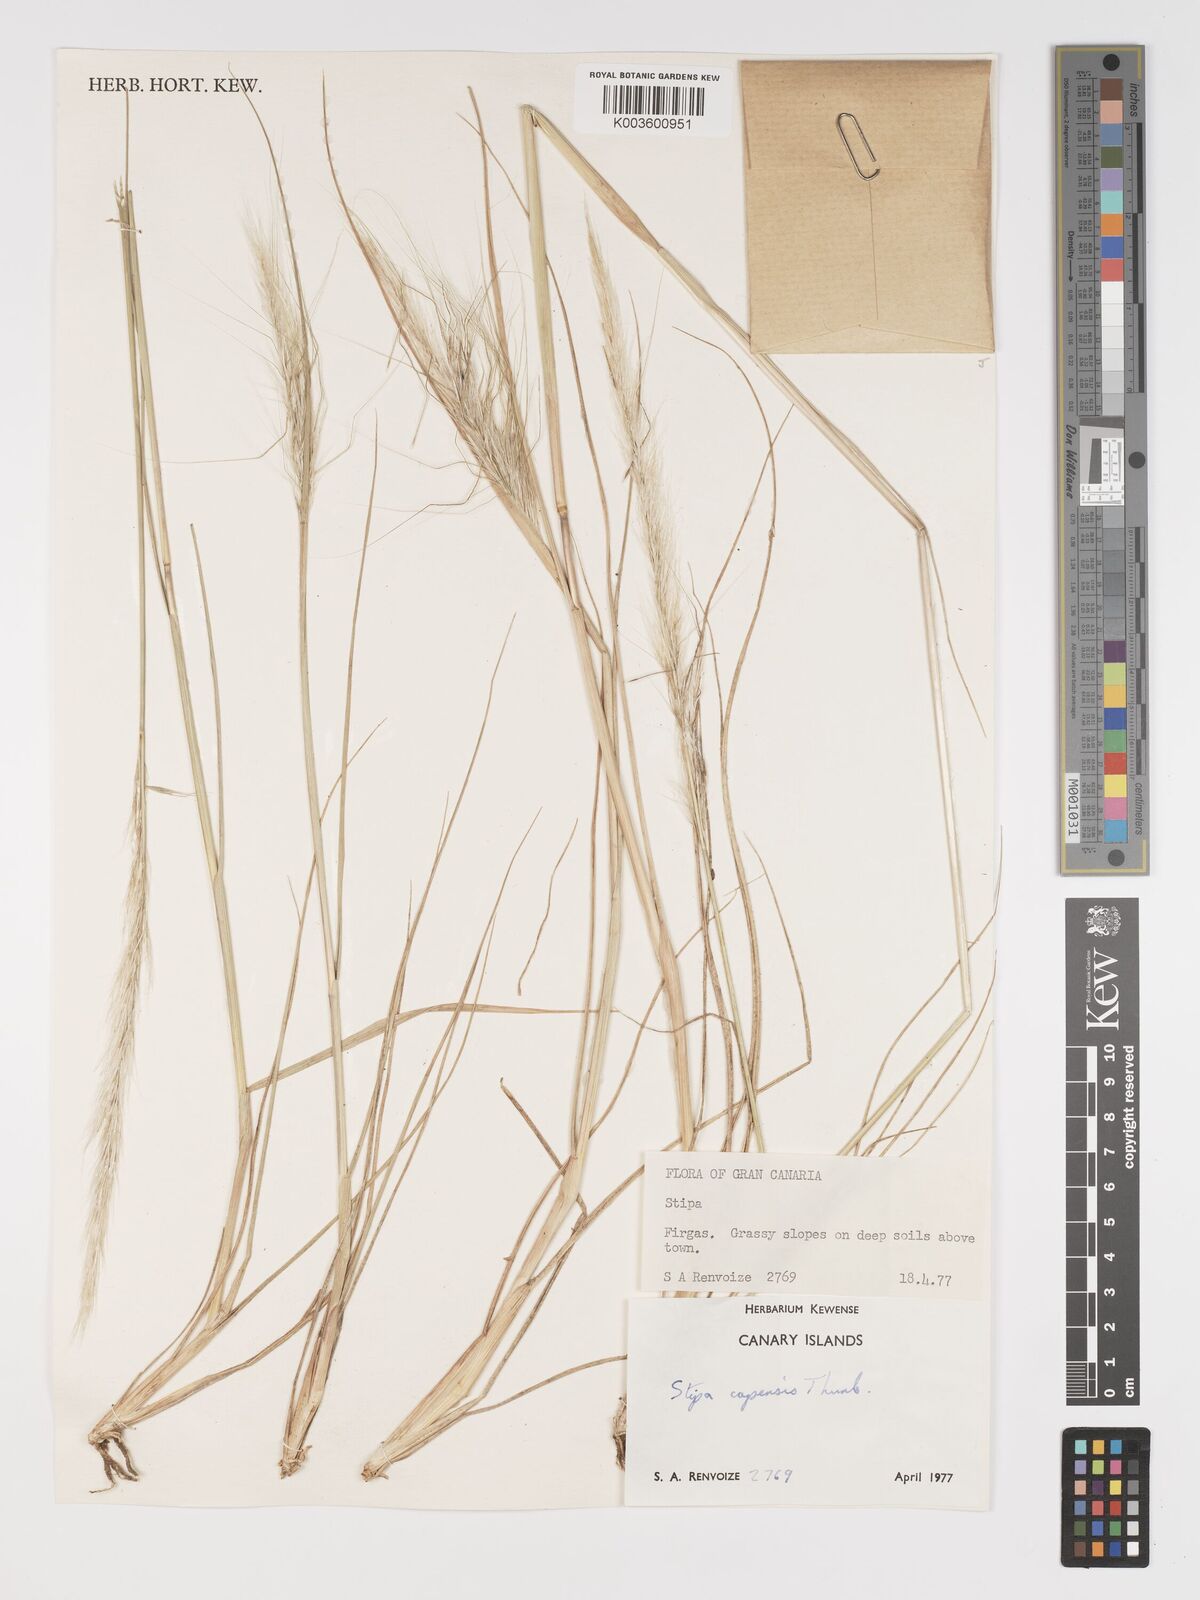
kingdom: Plantae
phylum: Tracheophyta
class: Liliopsida
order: Poales
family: Poaceae
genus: Stipellula
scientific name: Stipellula capensis
